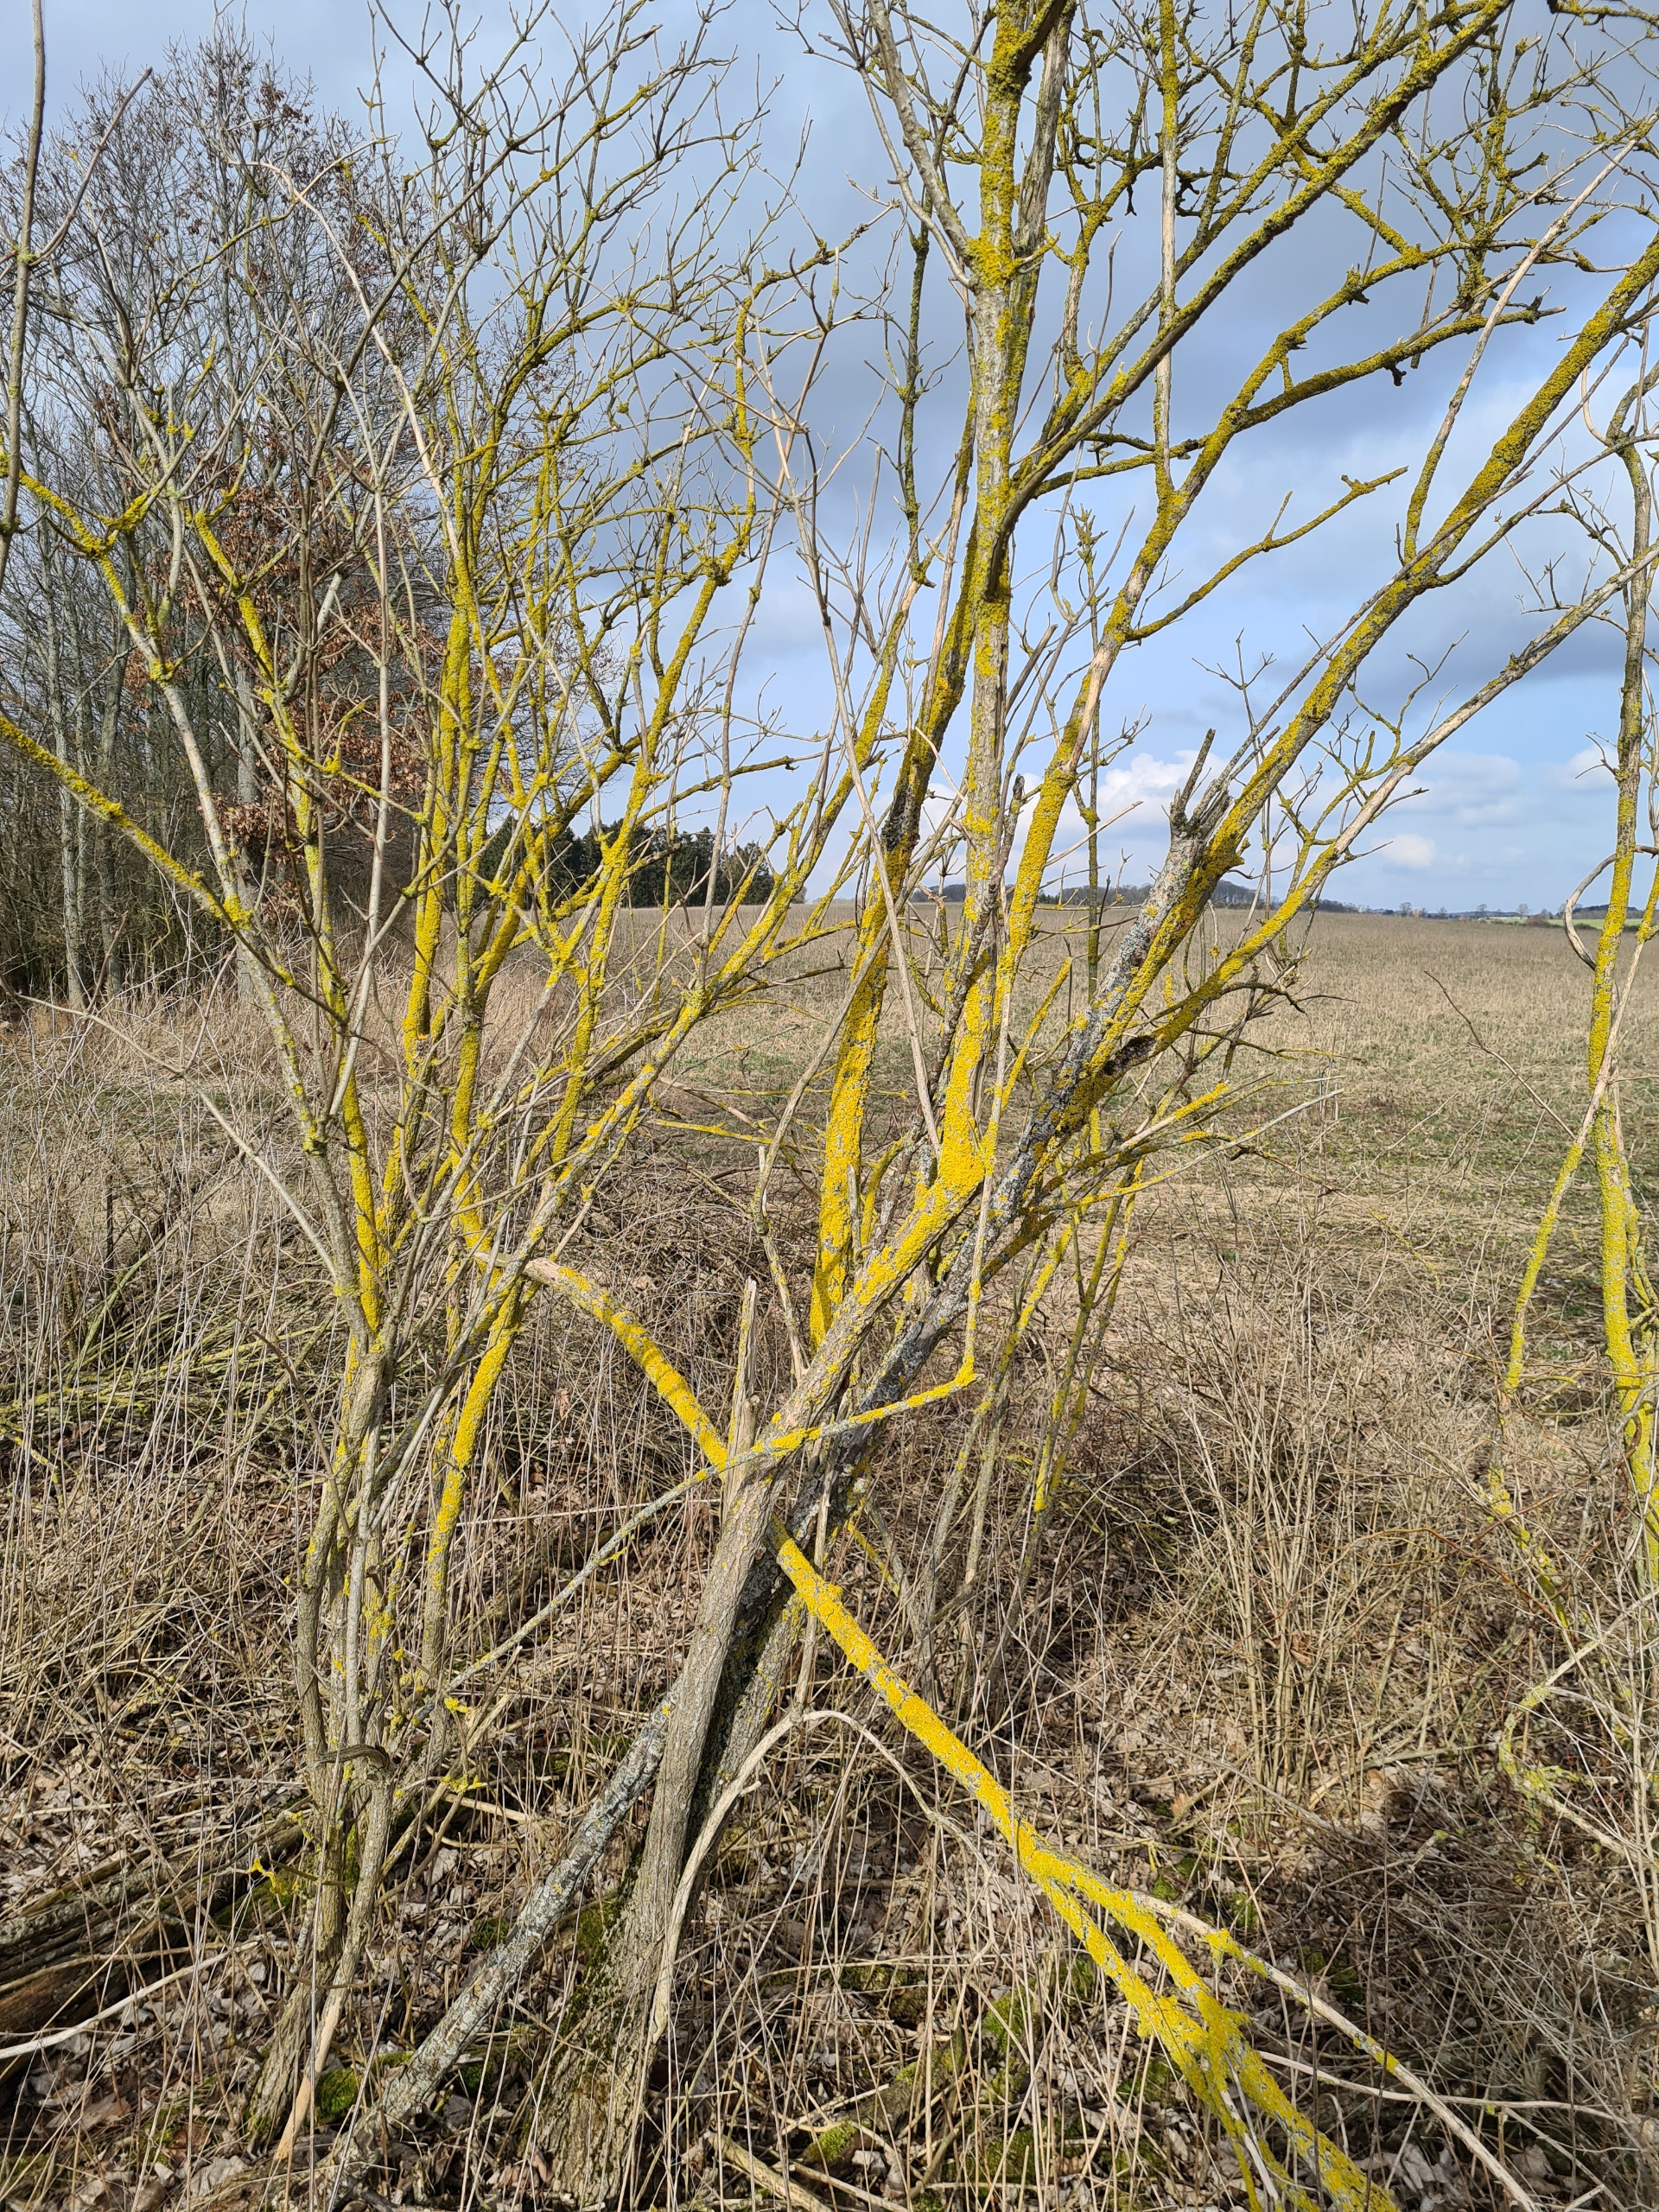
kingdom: Fungi
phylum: Ascomycota
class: Lecanoromycetes
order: Teloschistales
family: Teloschistaceae
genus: Xanthoria
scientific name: Xanthoria parietina
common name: Almindelig væggelav
